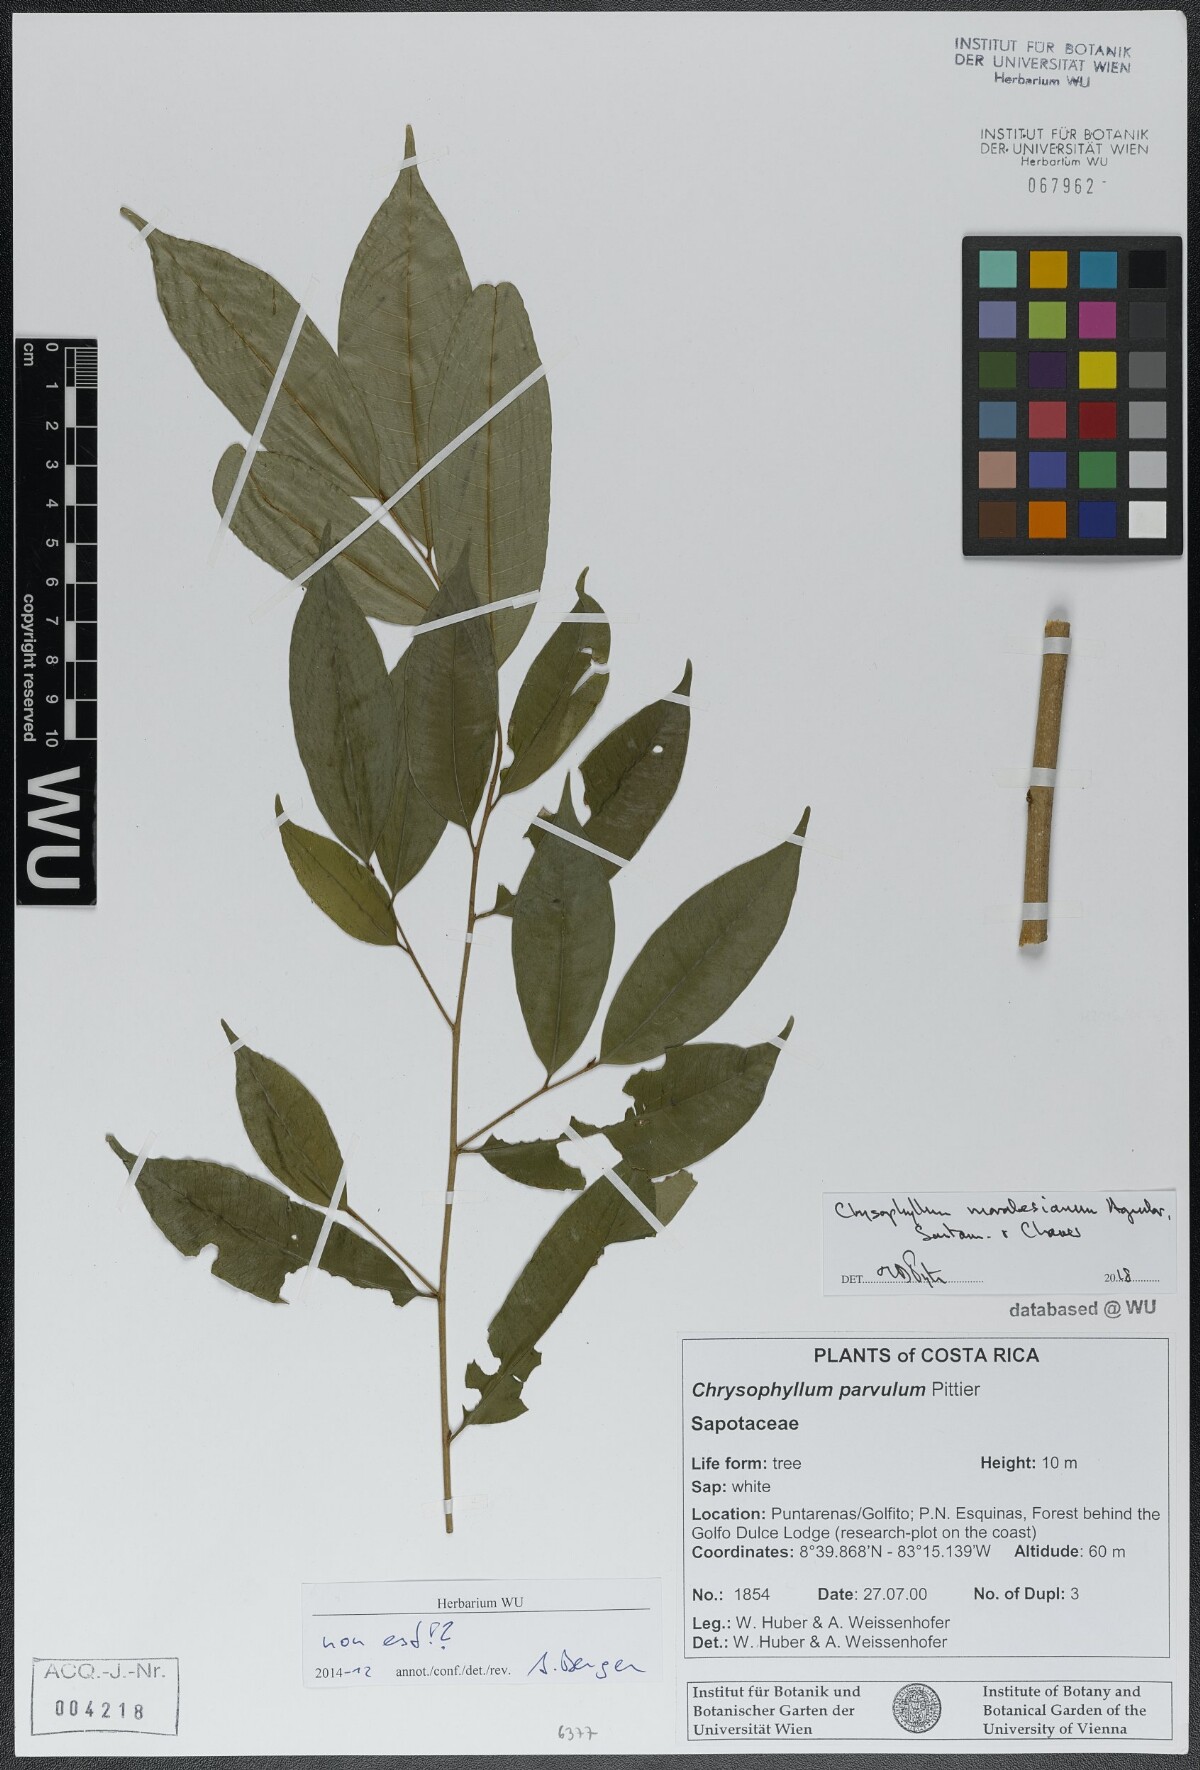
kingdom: Plantae
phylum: Tracheophyta
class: Magnoliopsida
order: Ericales
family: Sapotaceae
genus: Chrysophyllum
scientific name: Chrysophyllum moralesianum
